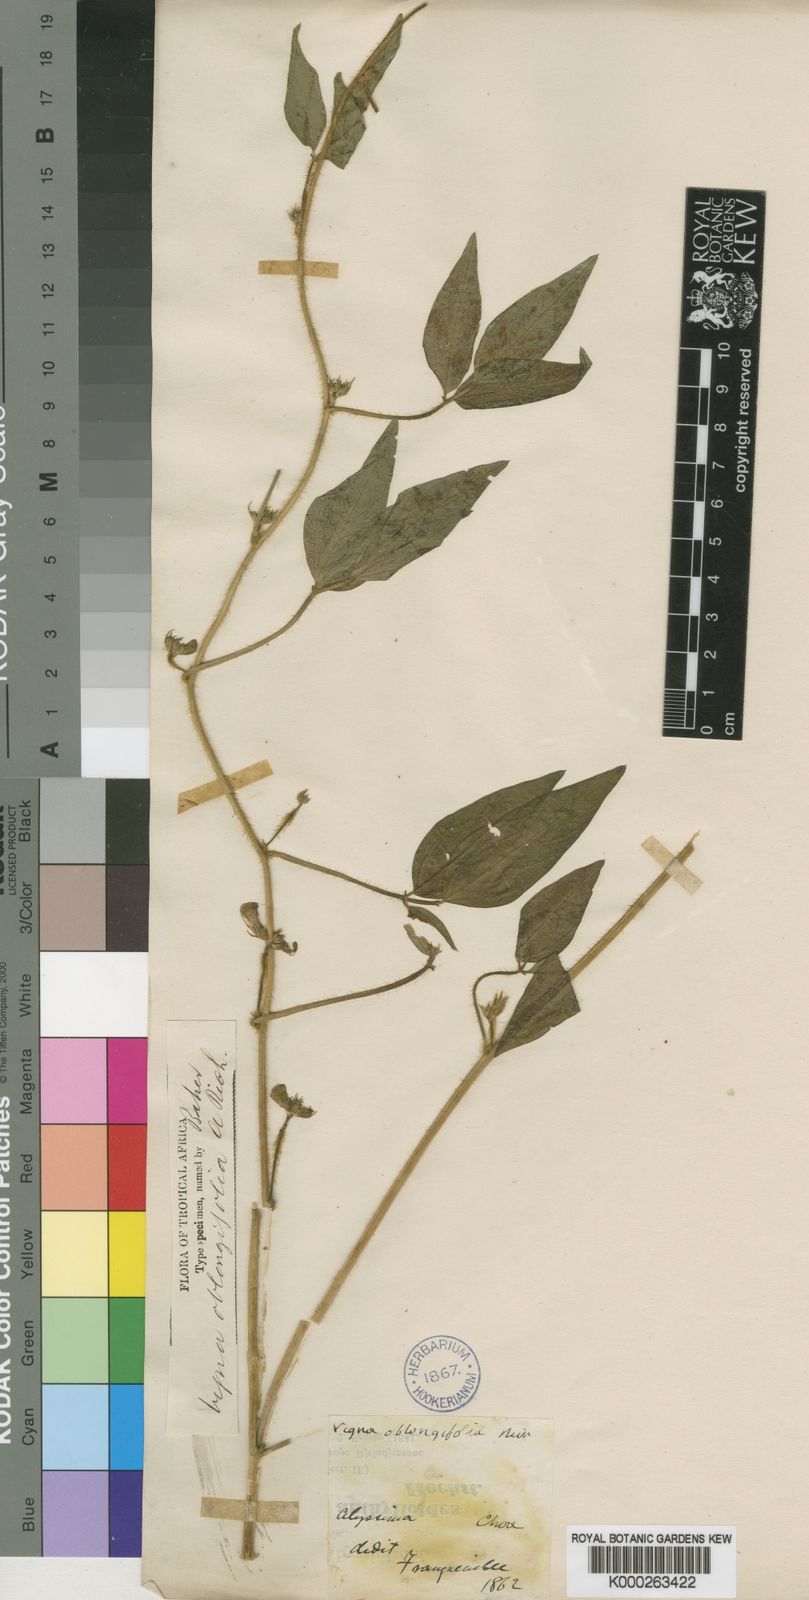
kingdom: Plantae
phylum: Tracheophyta
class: Magnoliopsida
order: Fabales
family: Fabaceae
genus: Vigna
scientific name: Vigna oblongifolia
